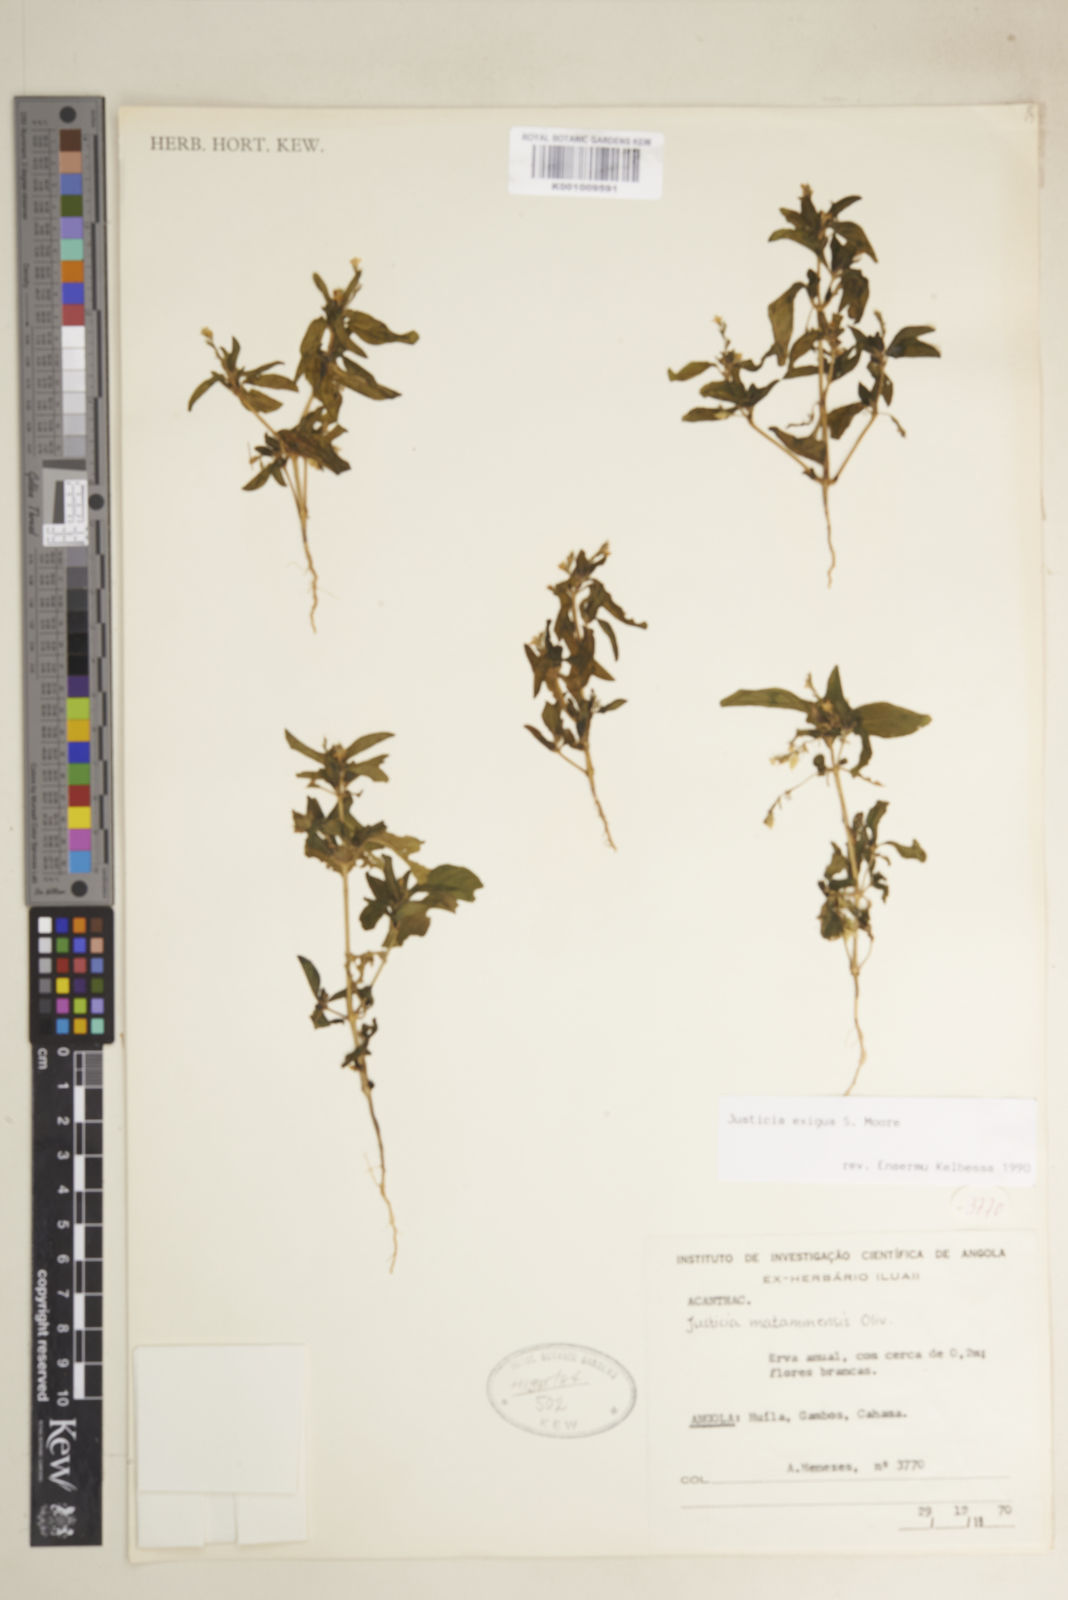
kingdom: Plantae
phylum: Tracheophyta
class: Magnoliopsida
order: Lamiales
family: Acanthaceae
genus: Justicia
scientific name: Justicia exigua
